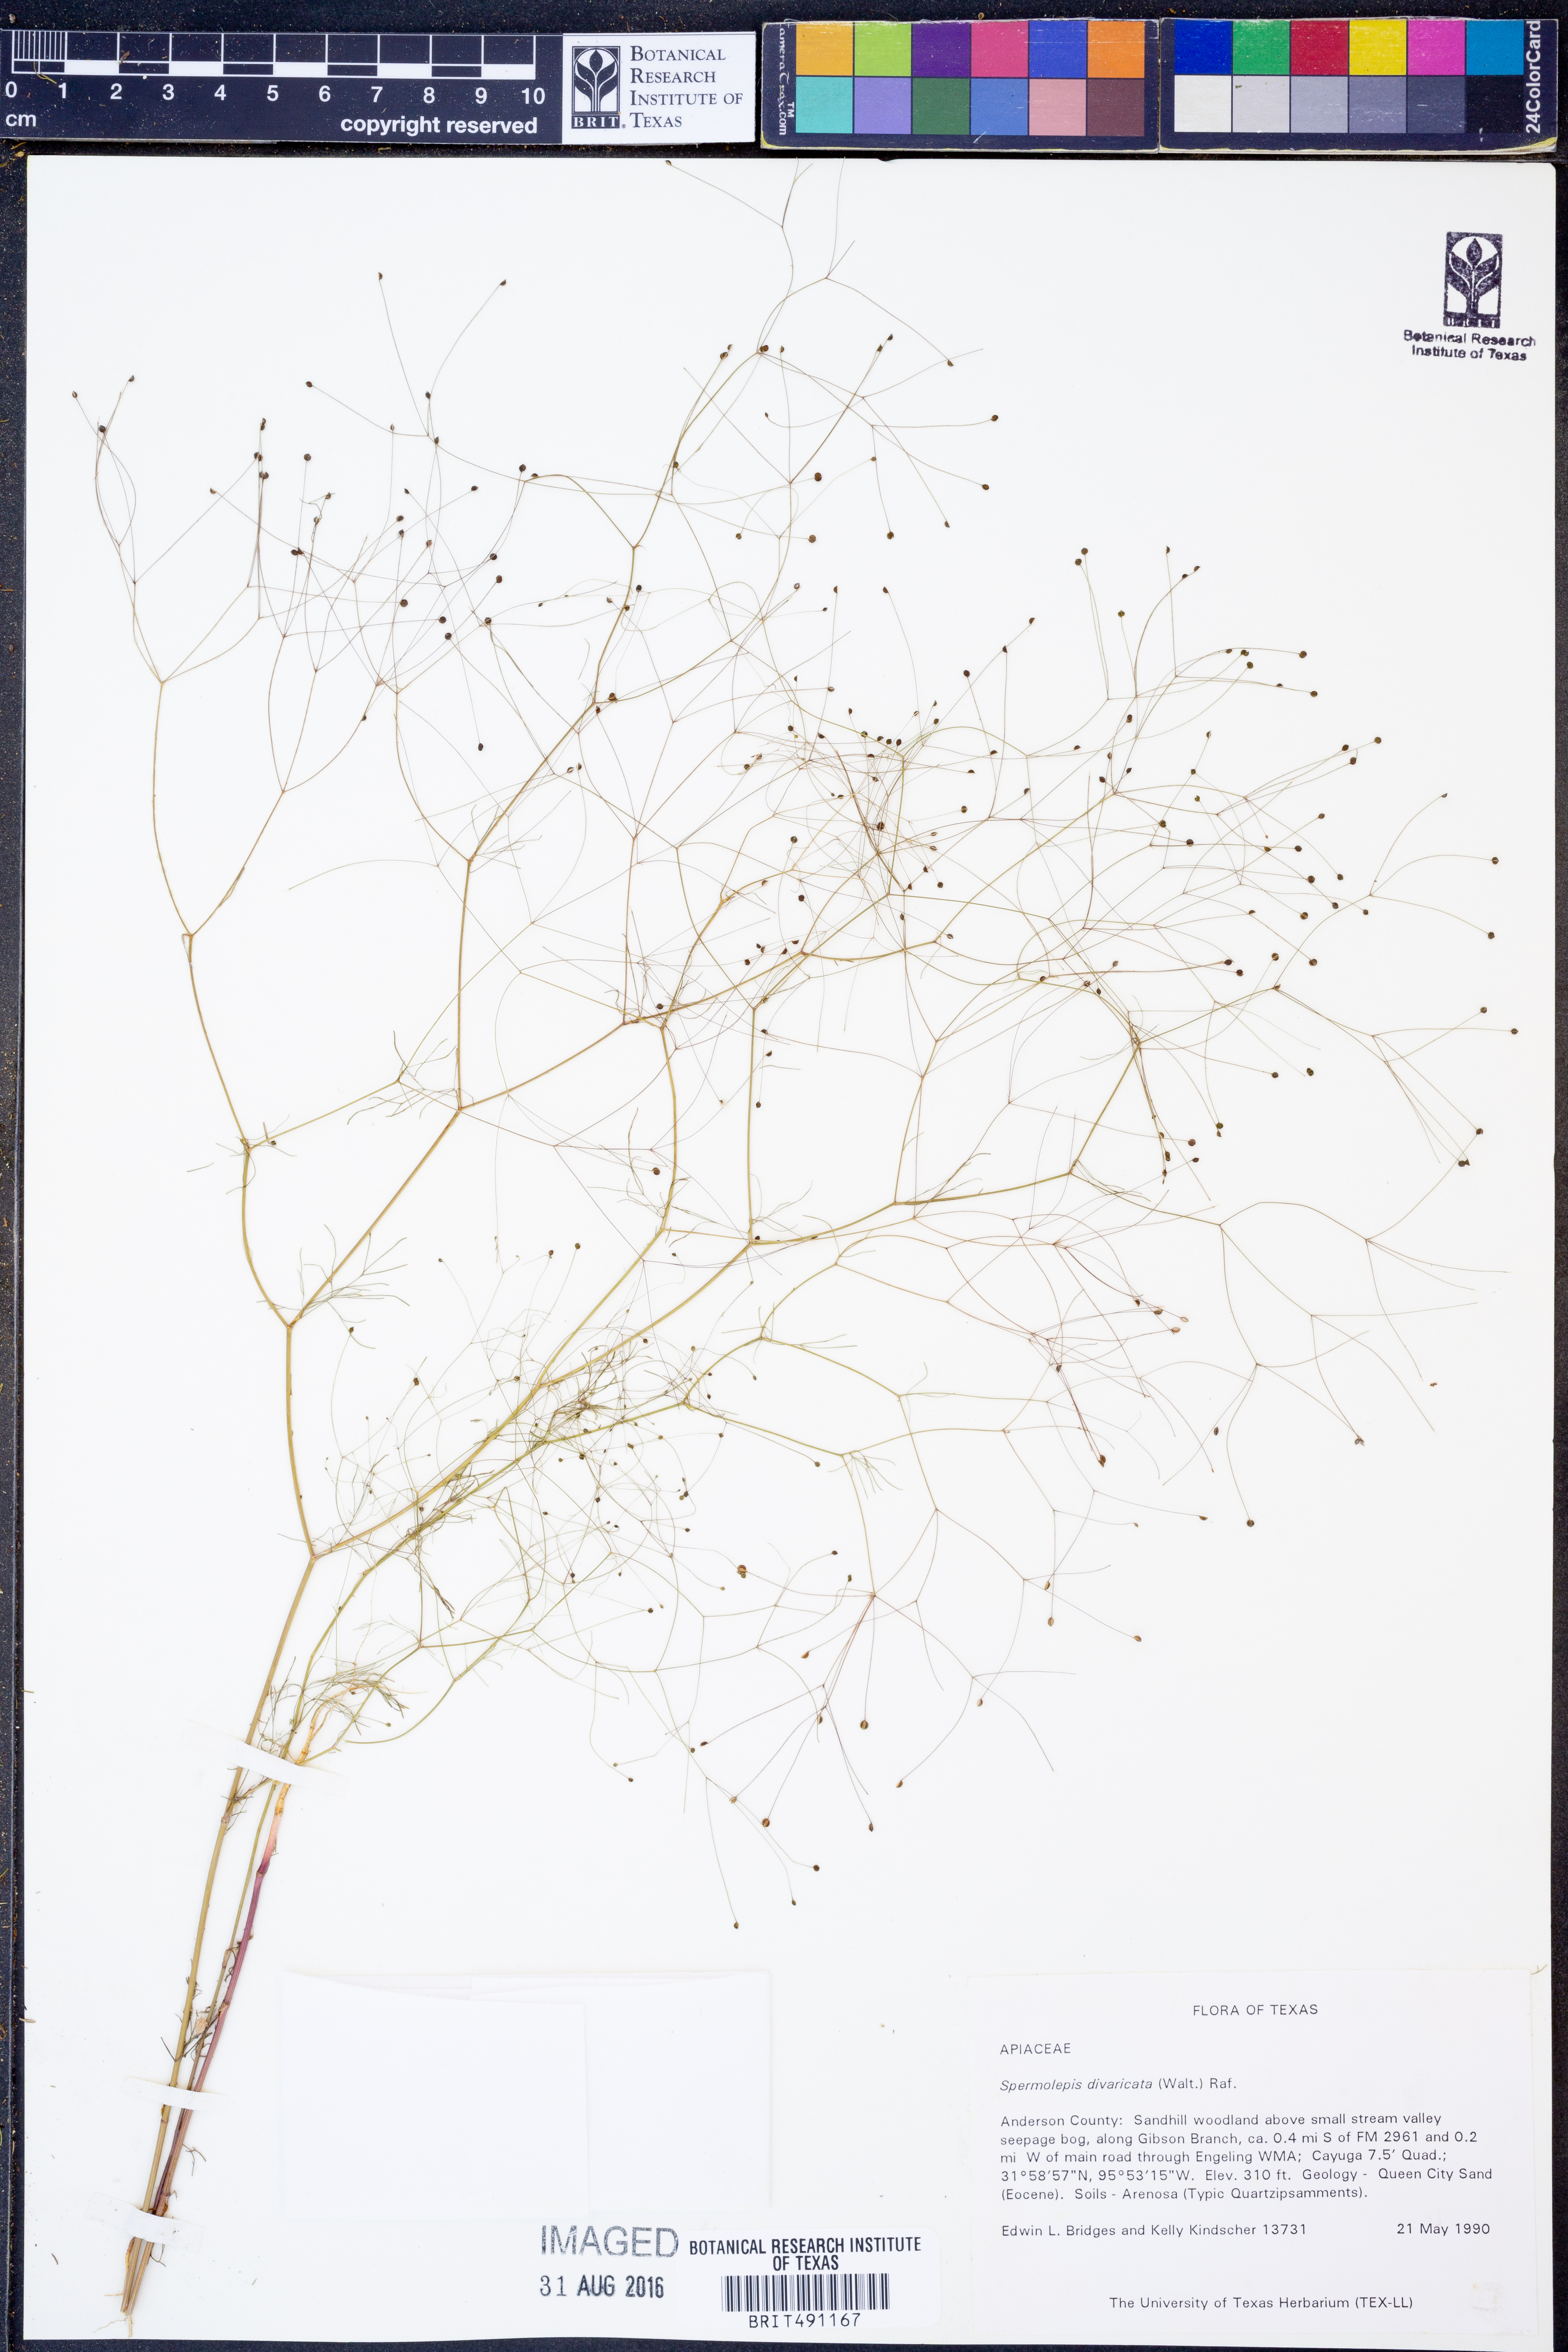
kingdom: Plantae
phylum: Tracheophyta
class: Magnoliopsida
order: Apiales
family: Apiaceae
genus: Spermolepis
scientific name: Spermolepis divaricata
